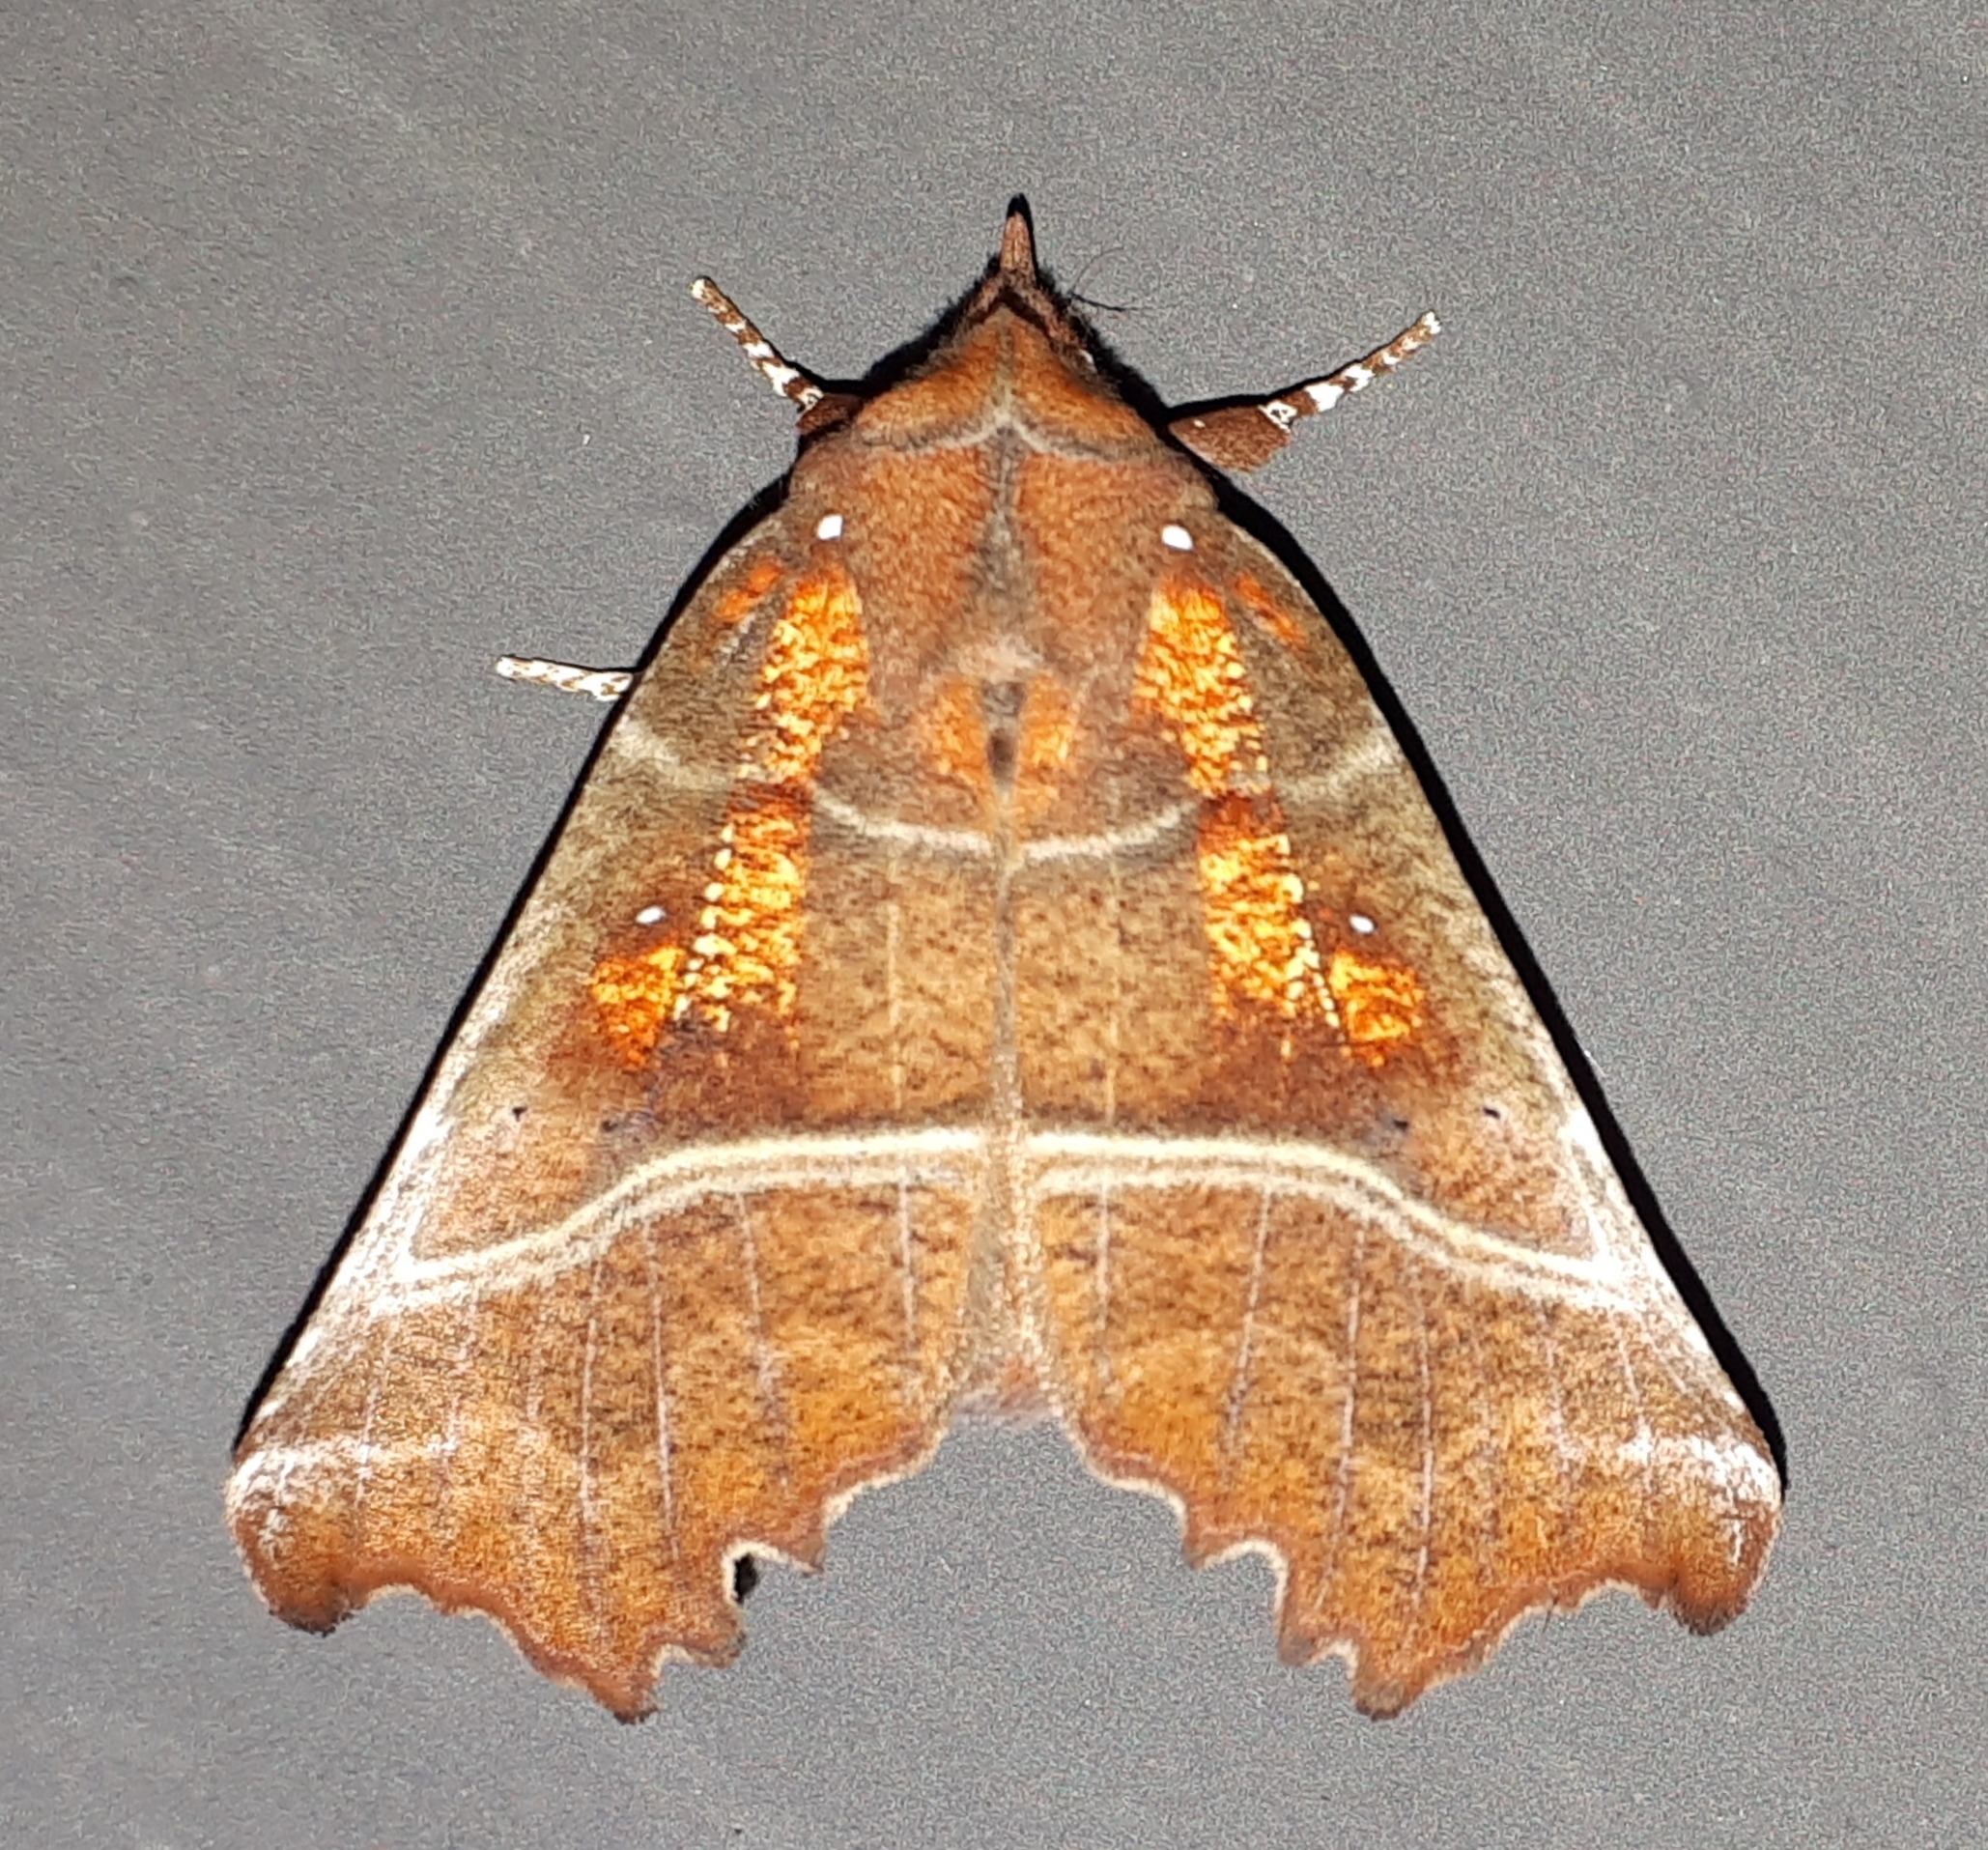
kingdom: Animalia
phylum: Arthropoda
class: Insecta
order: Lepidoptera
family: Erebidae
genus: Scoliopteryx
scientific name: Scoliopteryx libatrix
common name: Husmoderugle
